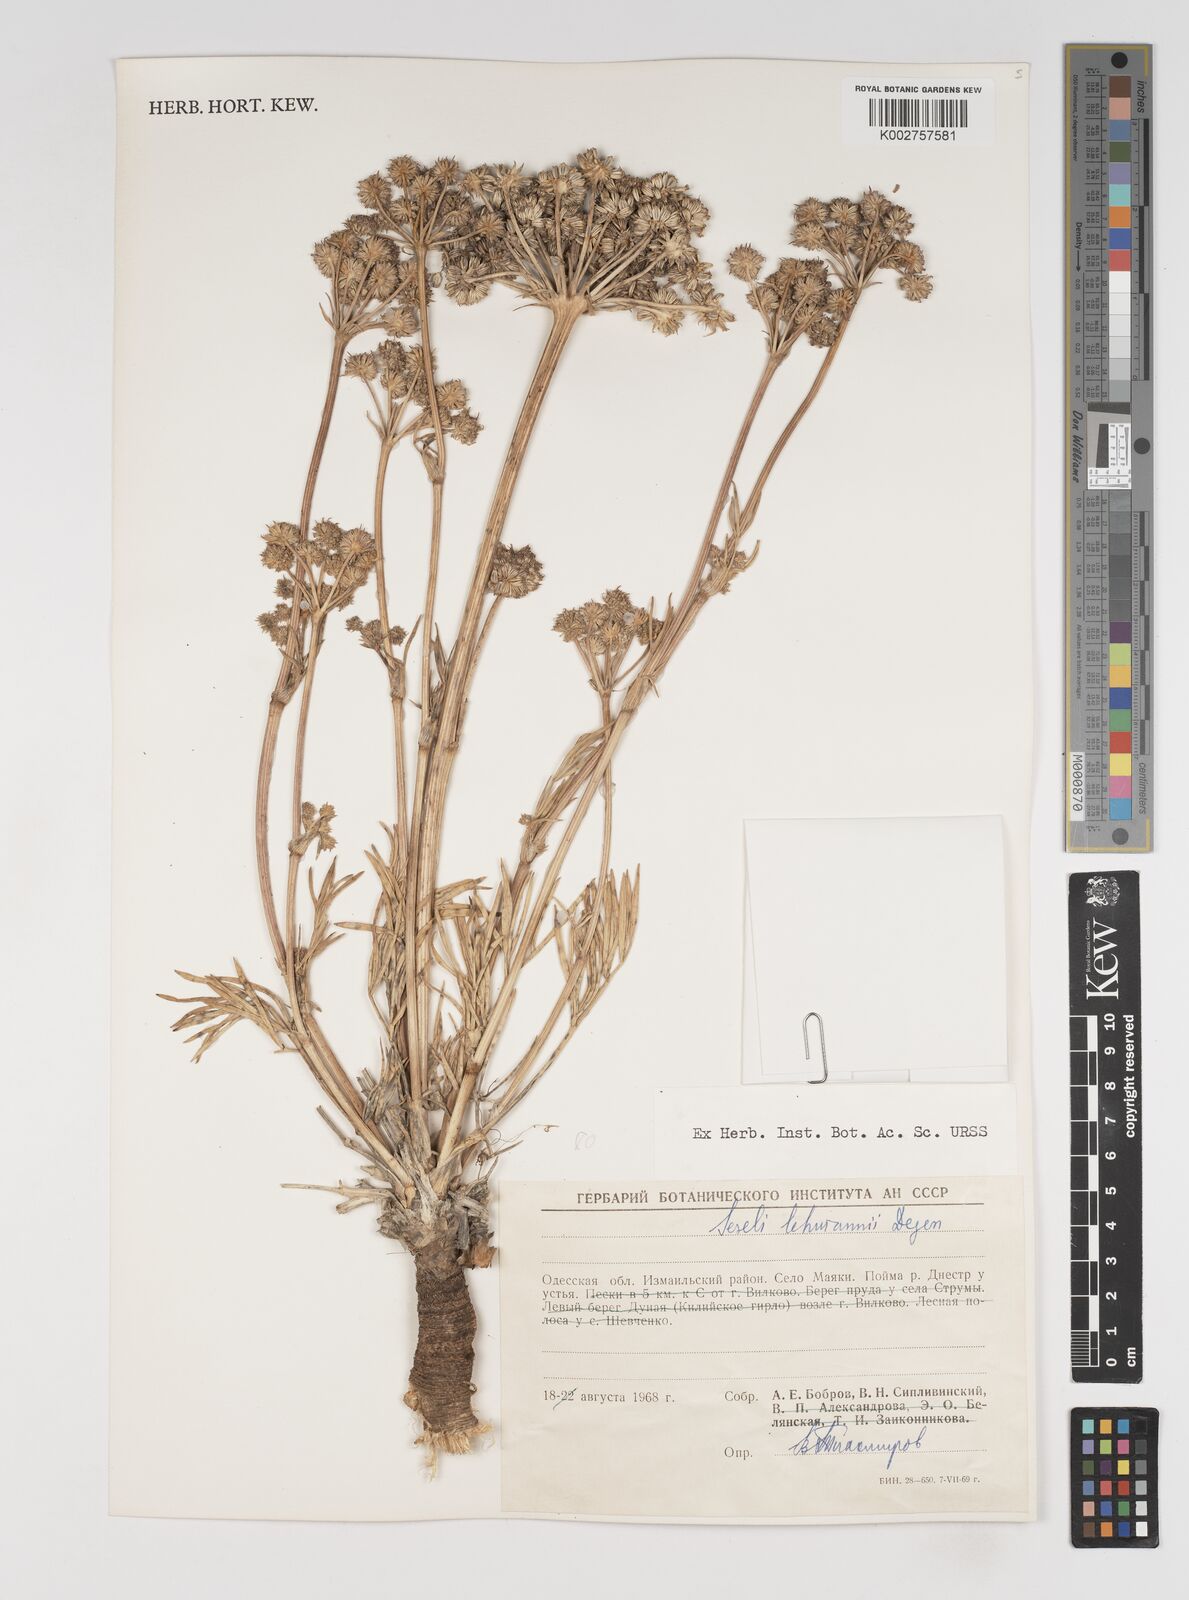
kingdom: Plantae
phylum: Tracheophyta
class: Magnoliopsida
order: Apiales
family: Apiaceae
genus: Seseli
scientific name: Seseli lehmannii
